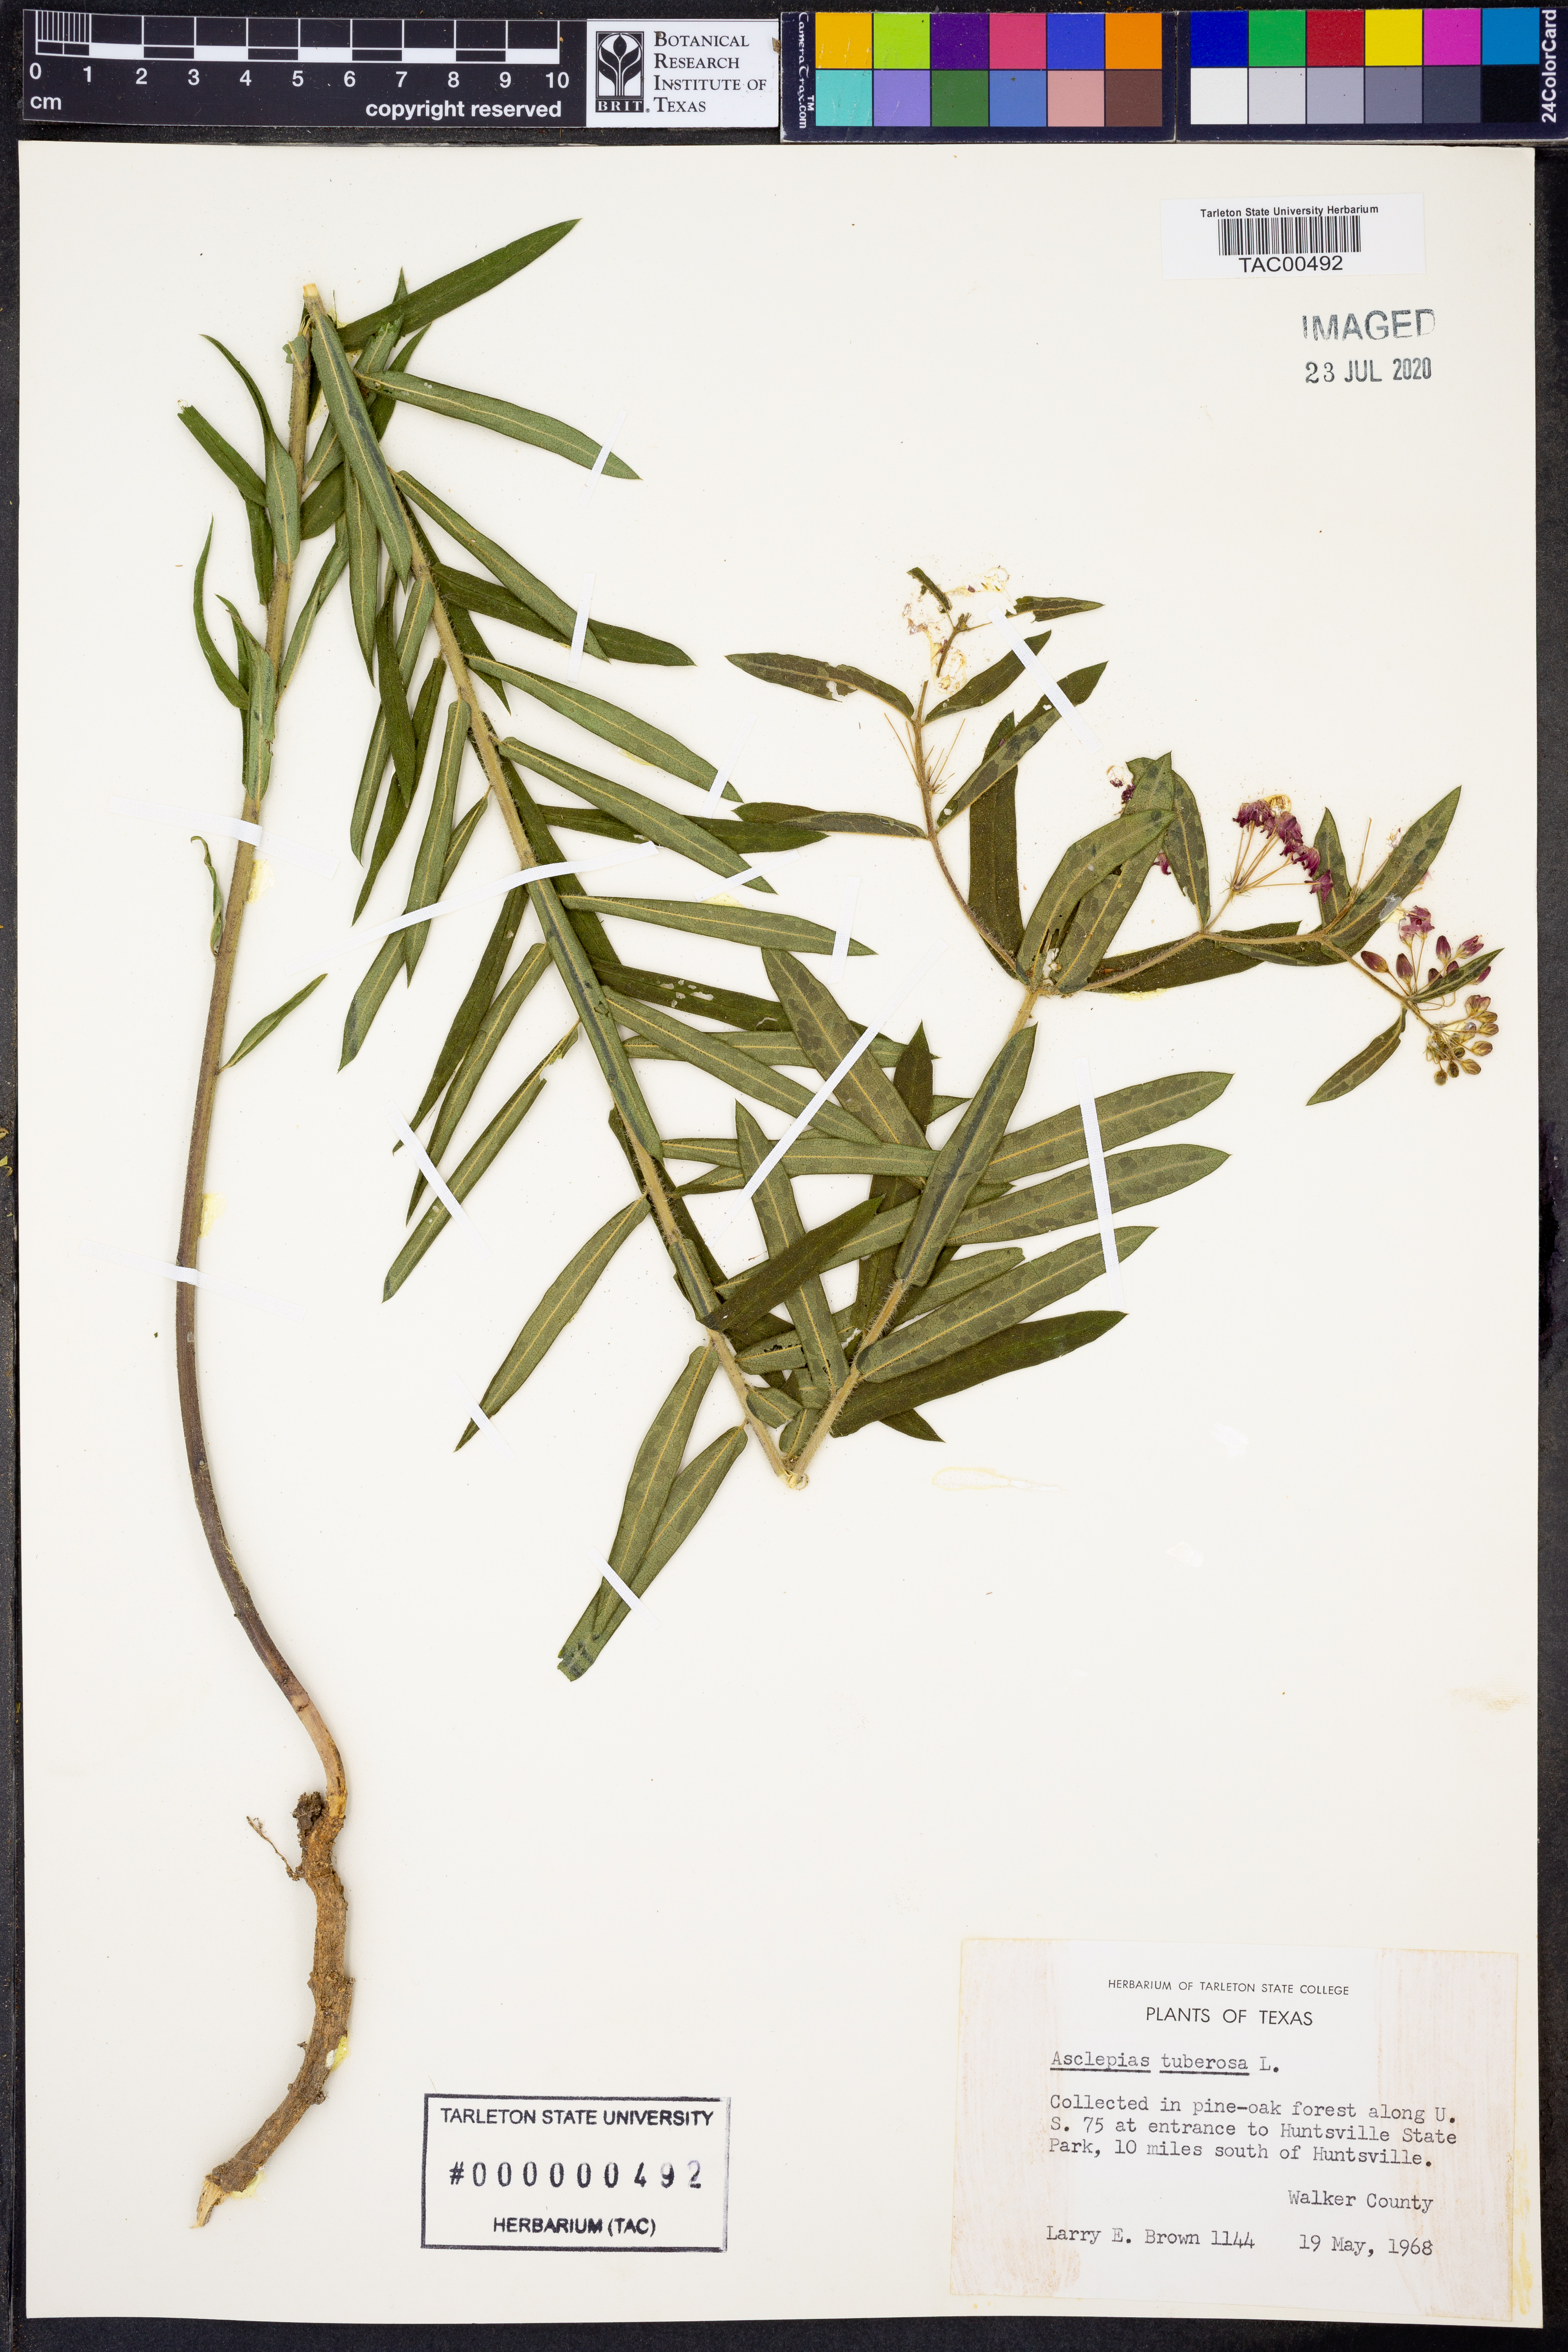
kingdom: Plantae
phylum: Tracheophyta
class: Magnoliopsida
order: Gentianales
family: Apocynaceae
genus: Asclepias
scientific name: Asclepias tuberosa
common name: Butterfly milkweed
